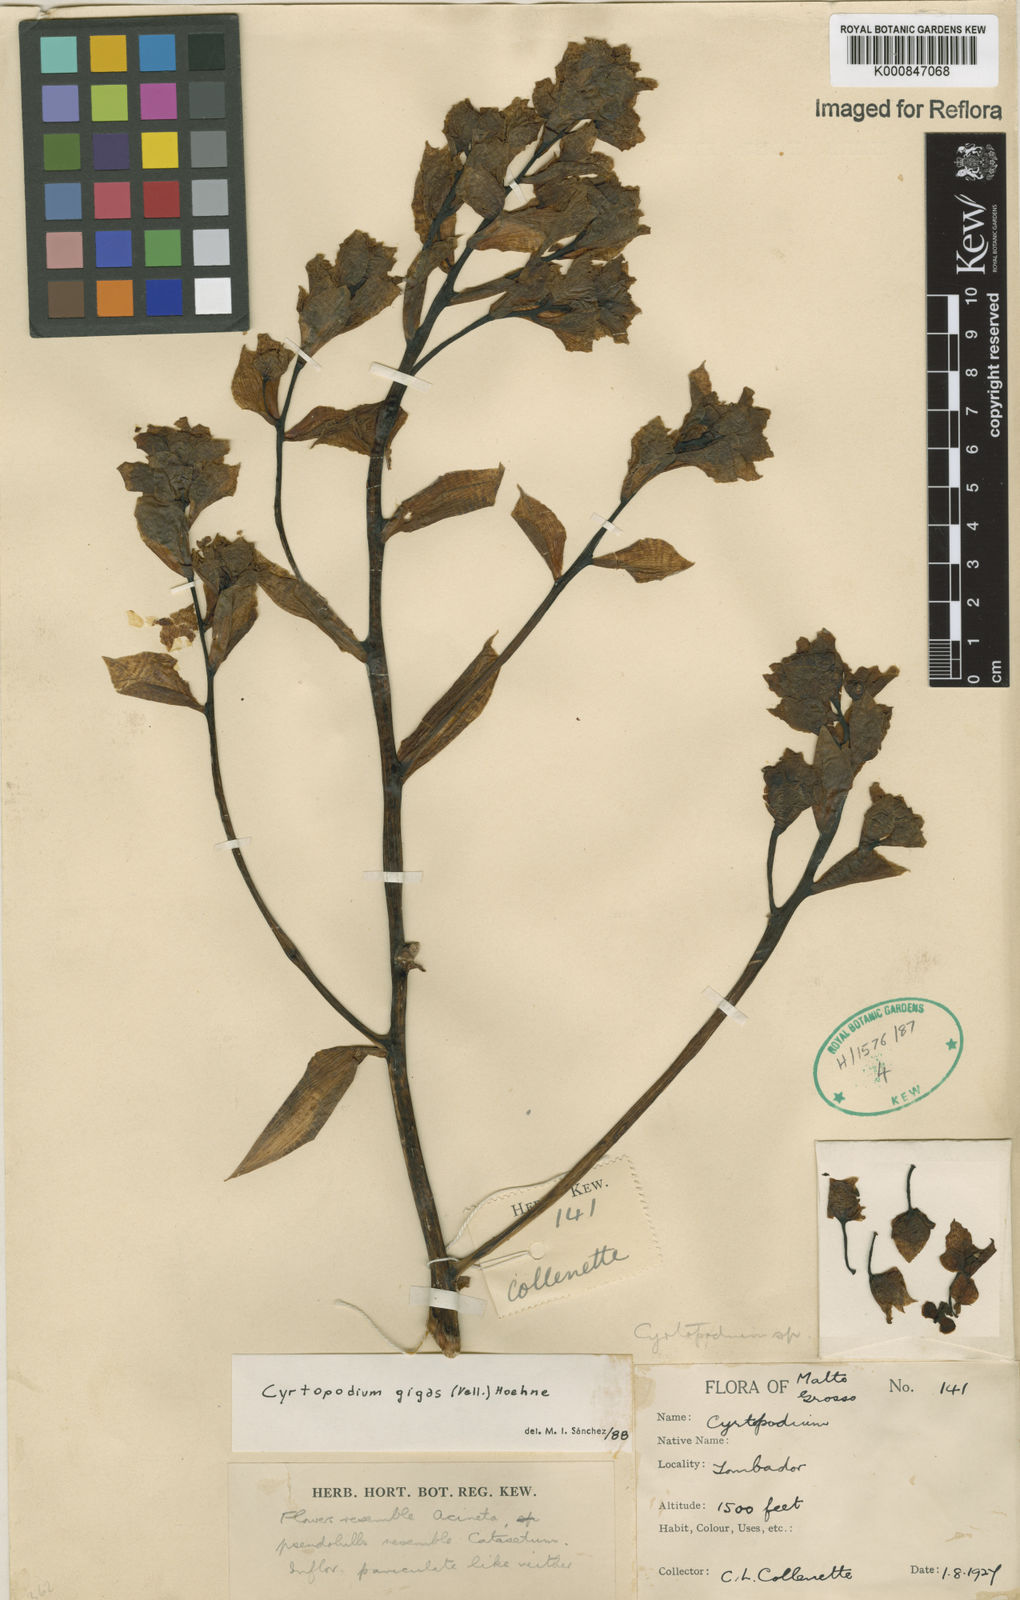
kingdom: Plantae
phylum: Tracheophyta
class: Liliopsida
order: Asparagales
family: Orchidaceae
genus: Cyrtopodium
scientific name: Cyrtopodium gigas
